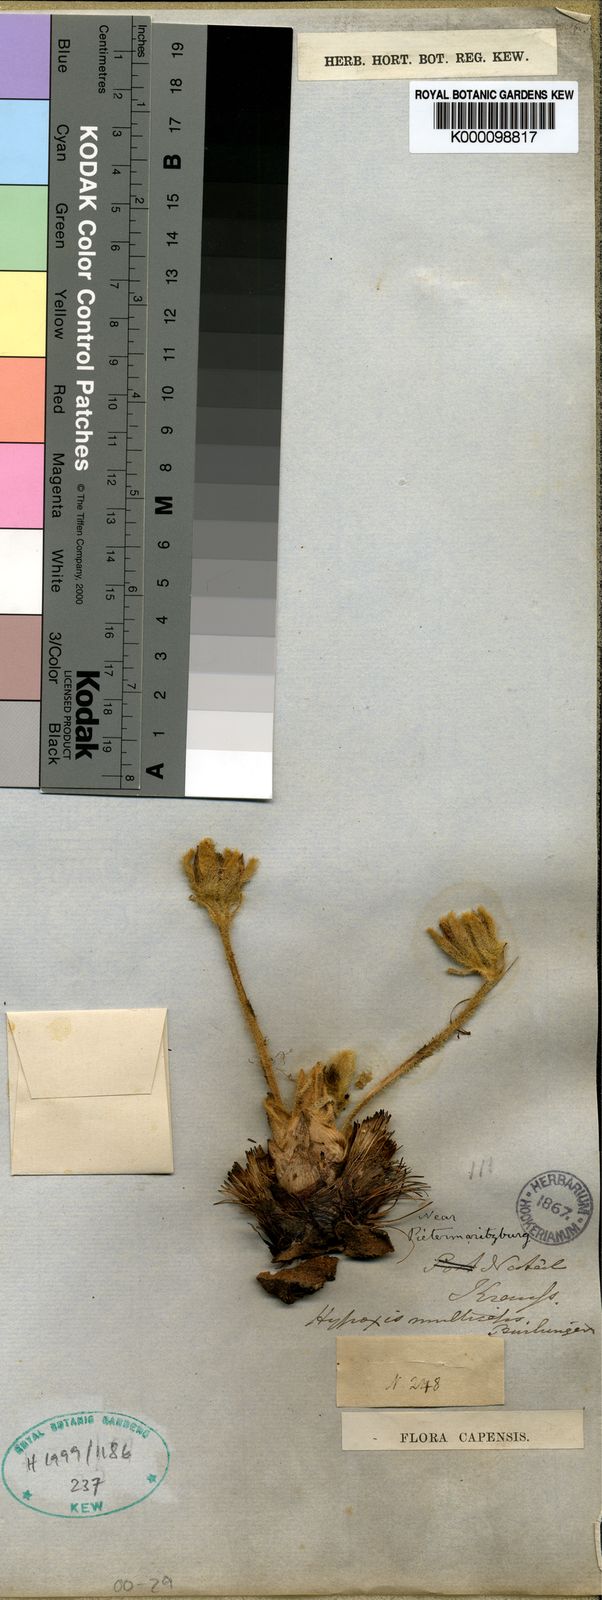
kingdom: Plantae
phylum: Tracheophyta
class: Liliopsida
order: Asparagales
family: Hypoxidaceae
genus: Hypoxis
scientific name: Hypoxis
